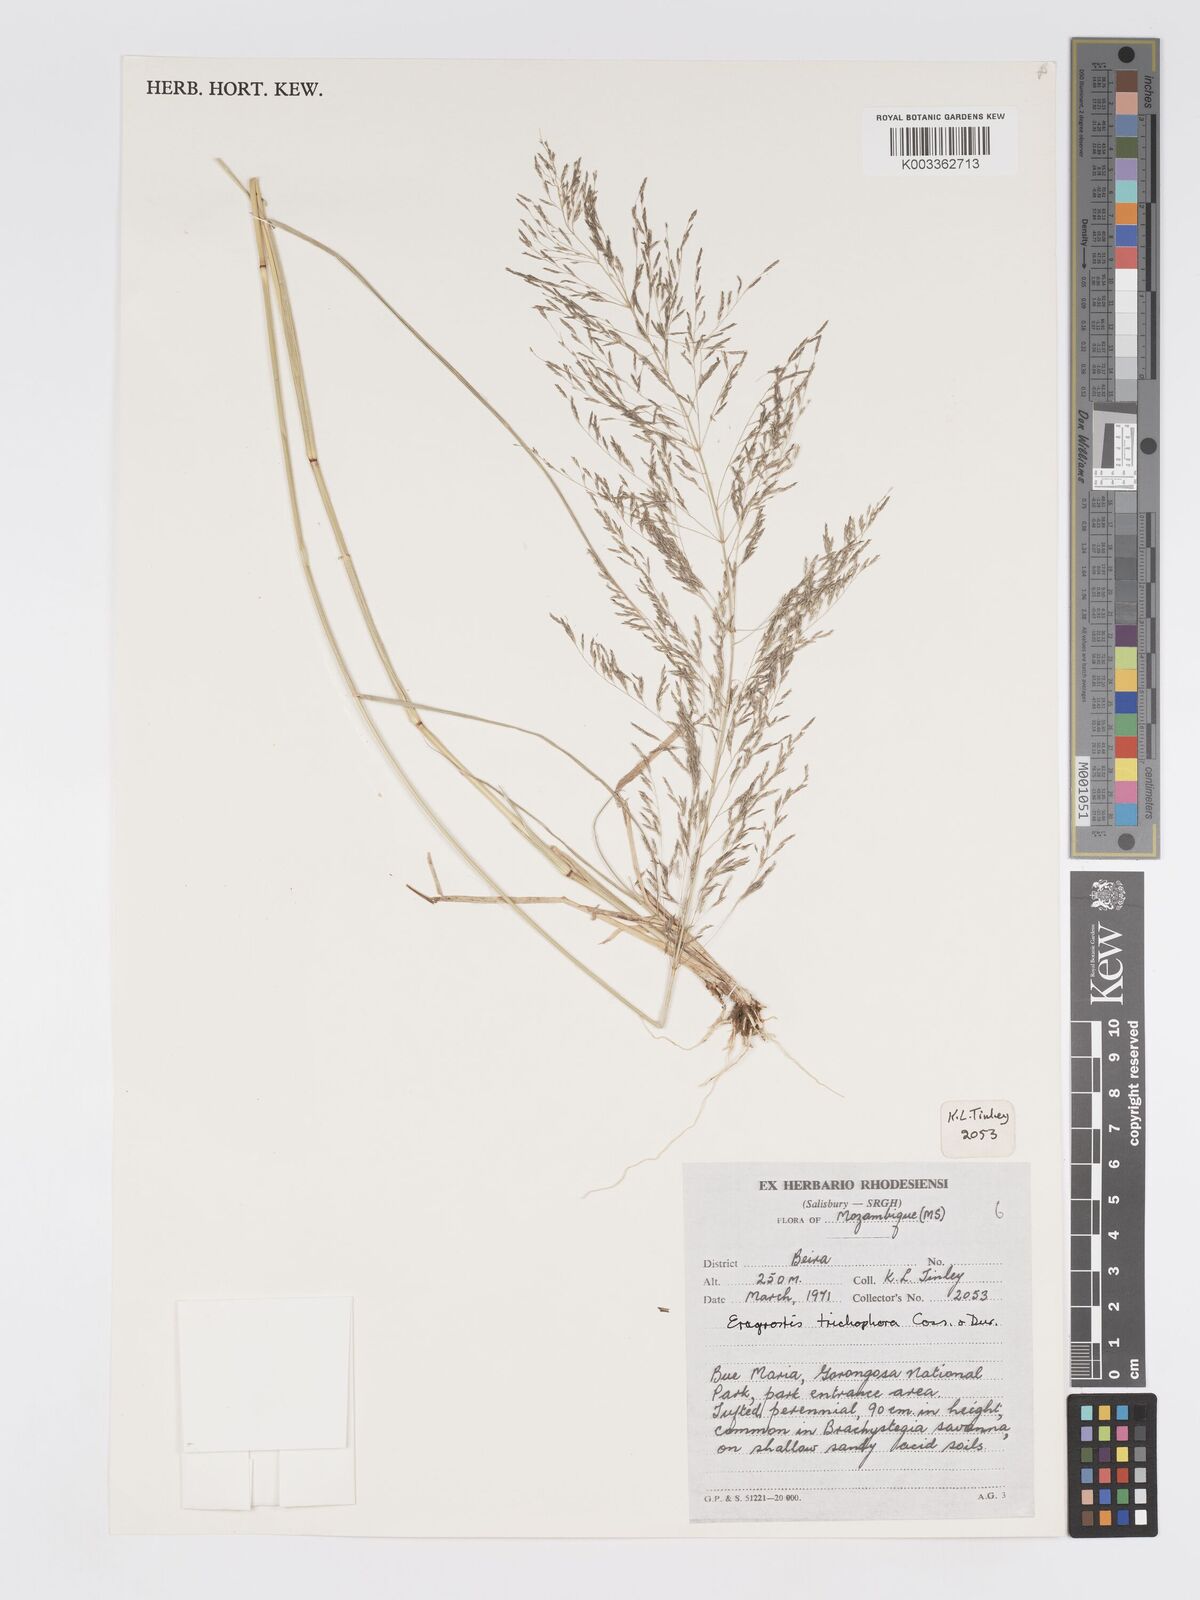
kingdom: Plantae
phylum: Tracheophyta
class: Liliopsida
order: Poales
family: Poaceae
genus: Eragrostis
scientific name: Eragrostis cylindriflora
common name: Cylinderflower lovegrass
